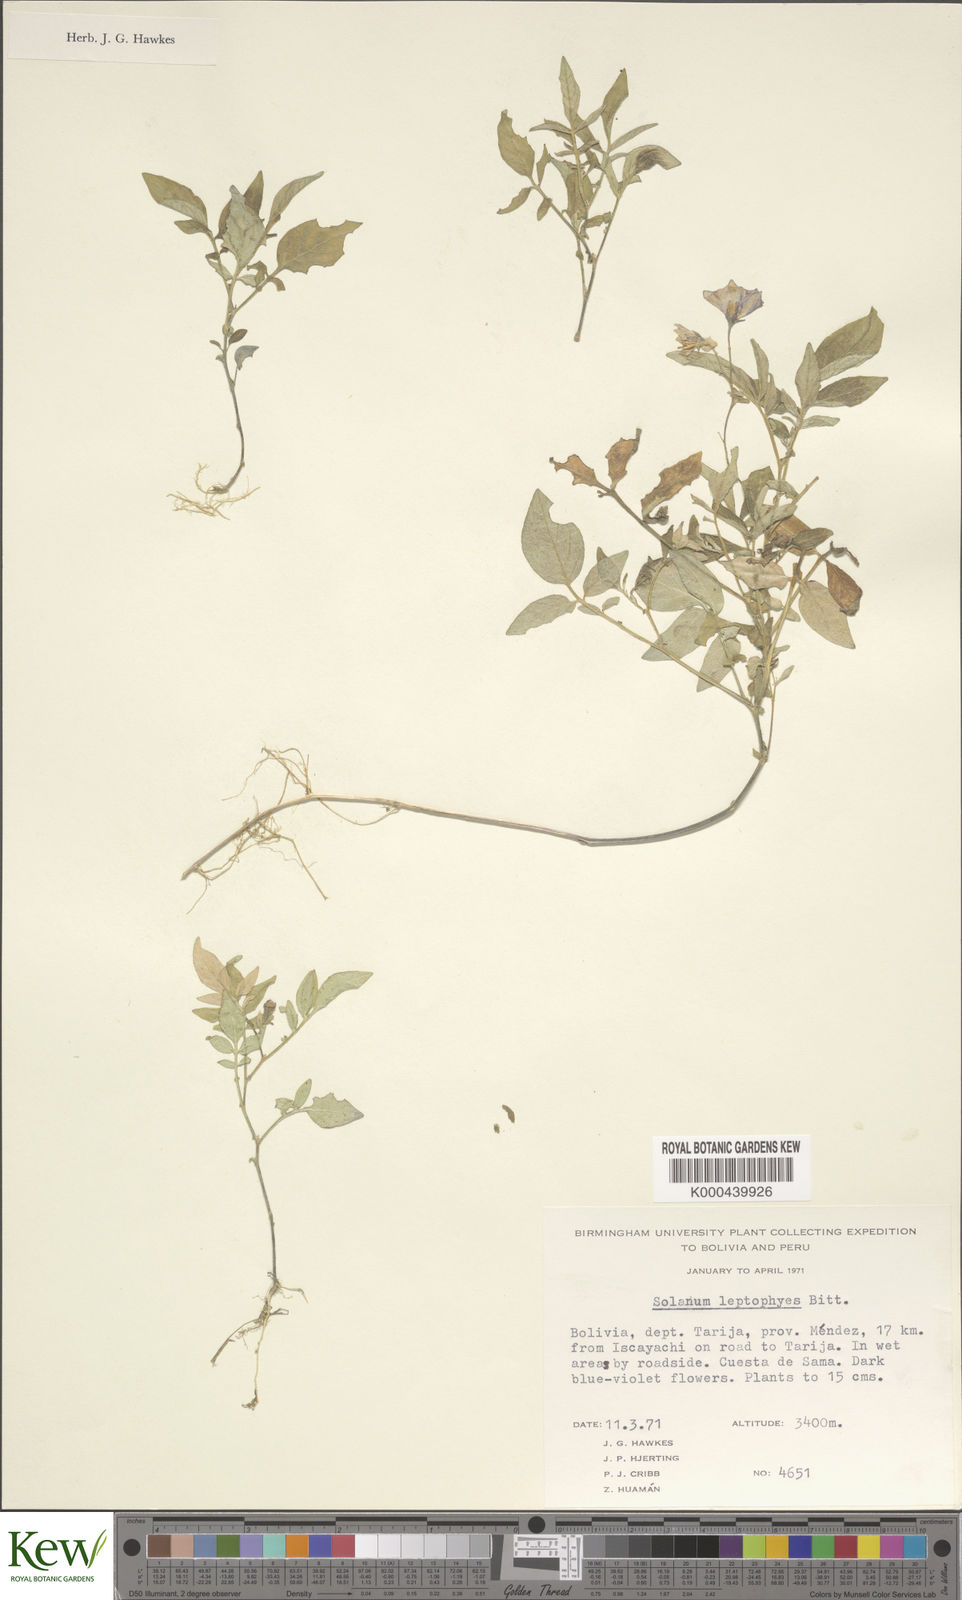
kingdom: Plantae
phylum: Tracheophyta
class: Magnoliopsida
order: Solanales
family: Solanaceae
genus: Solanum
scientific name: Solanum brevicaule
